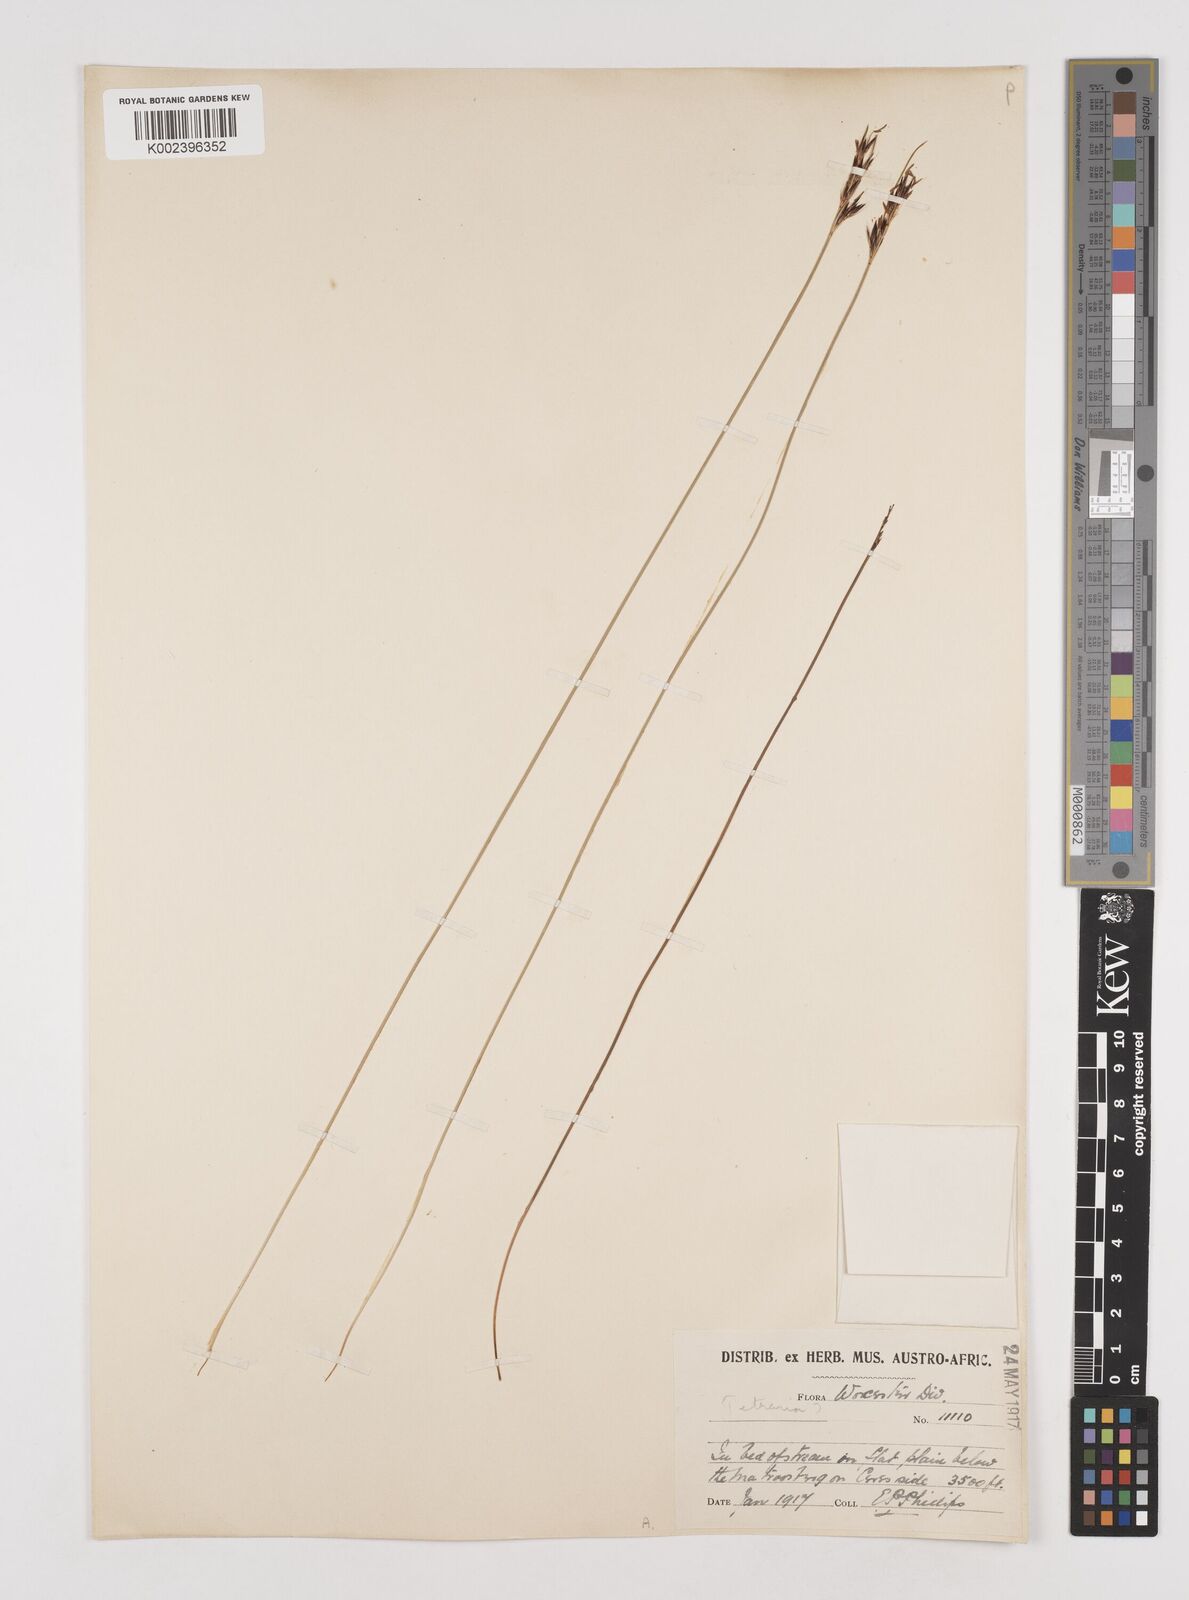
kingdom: Plantae
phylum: Tracheophyta
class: Liliopsida
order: Poales
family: Cyperaceae
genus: Schoenus
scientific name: Schoenus cuspidatus
